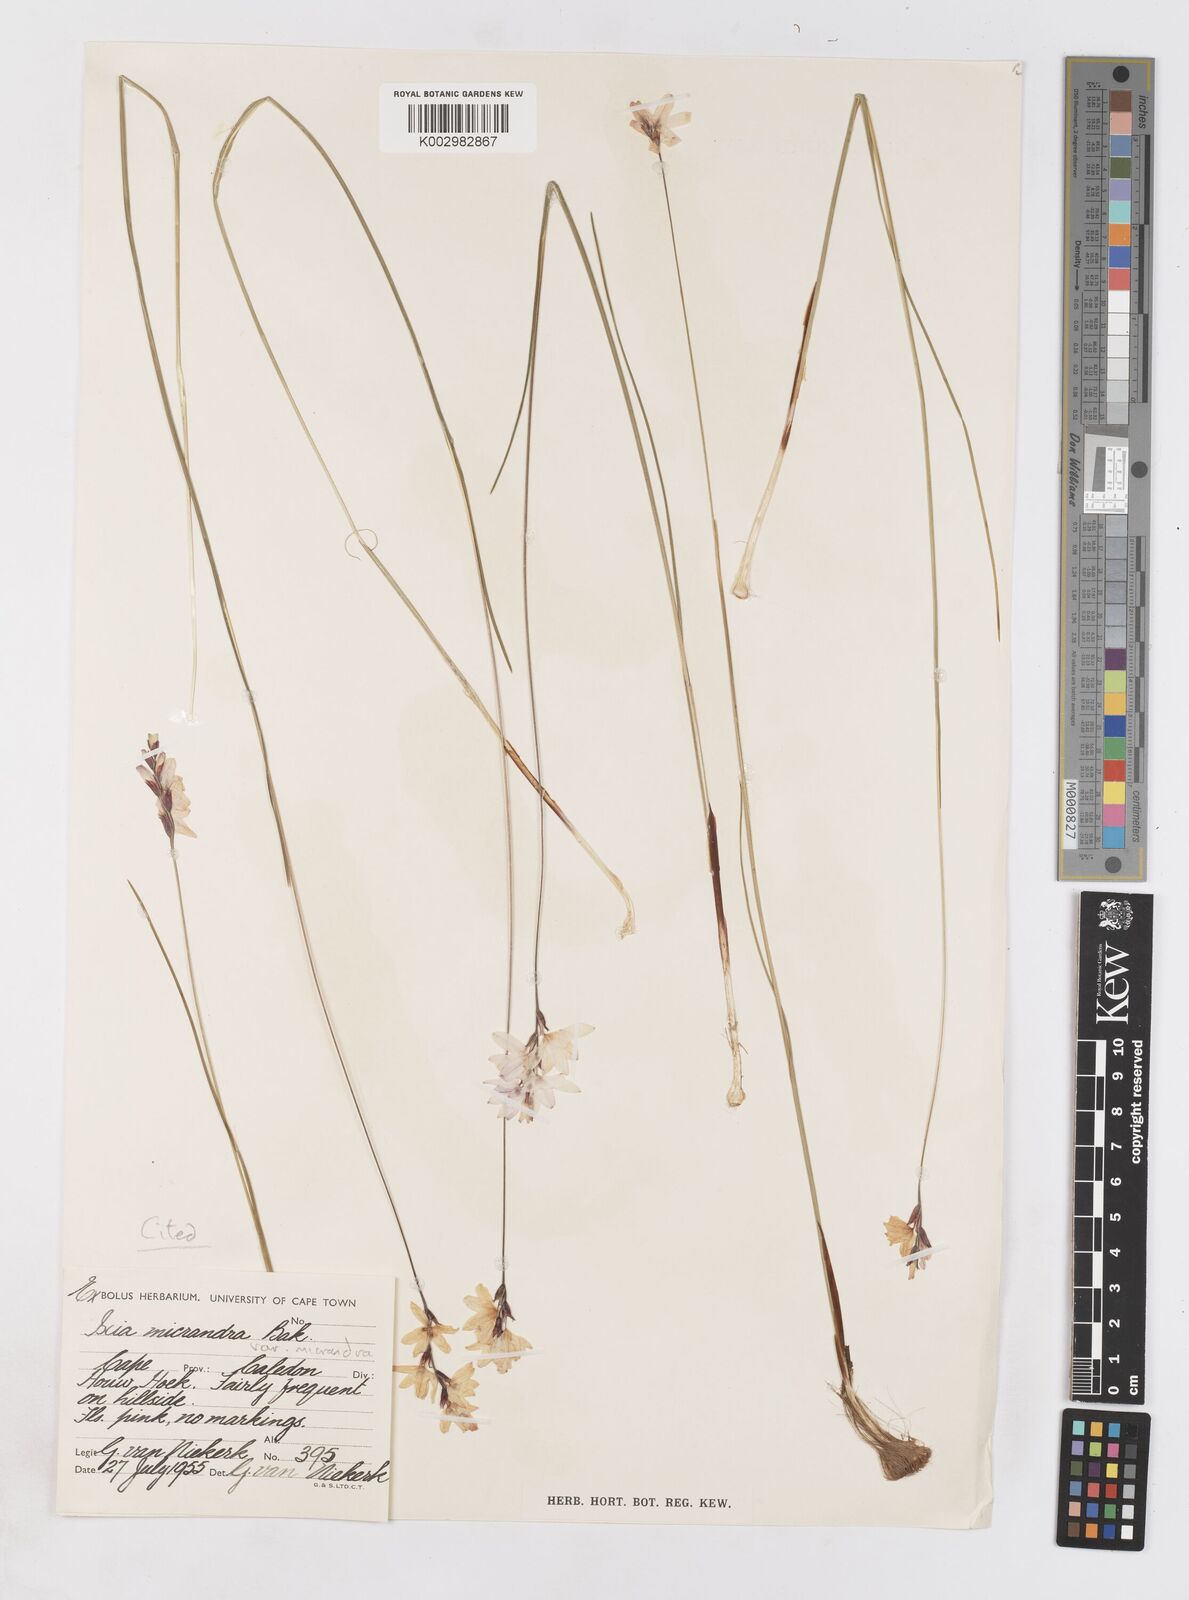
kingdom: Plantae
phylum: Tracheophyta
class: Liliopsida
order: Asparagales
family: Iridaceae
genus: Ixia
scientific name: Ixia micrandra
